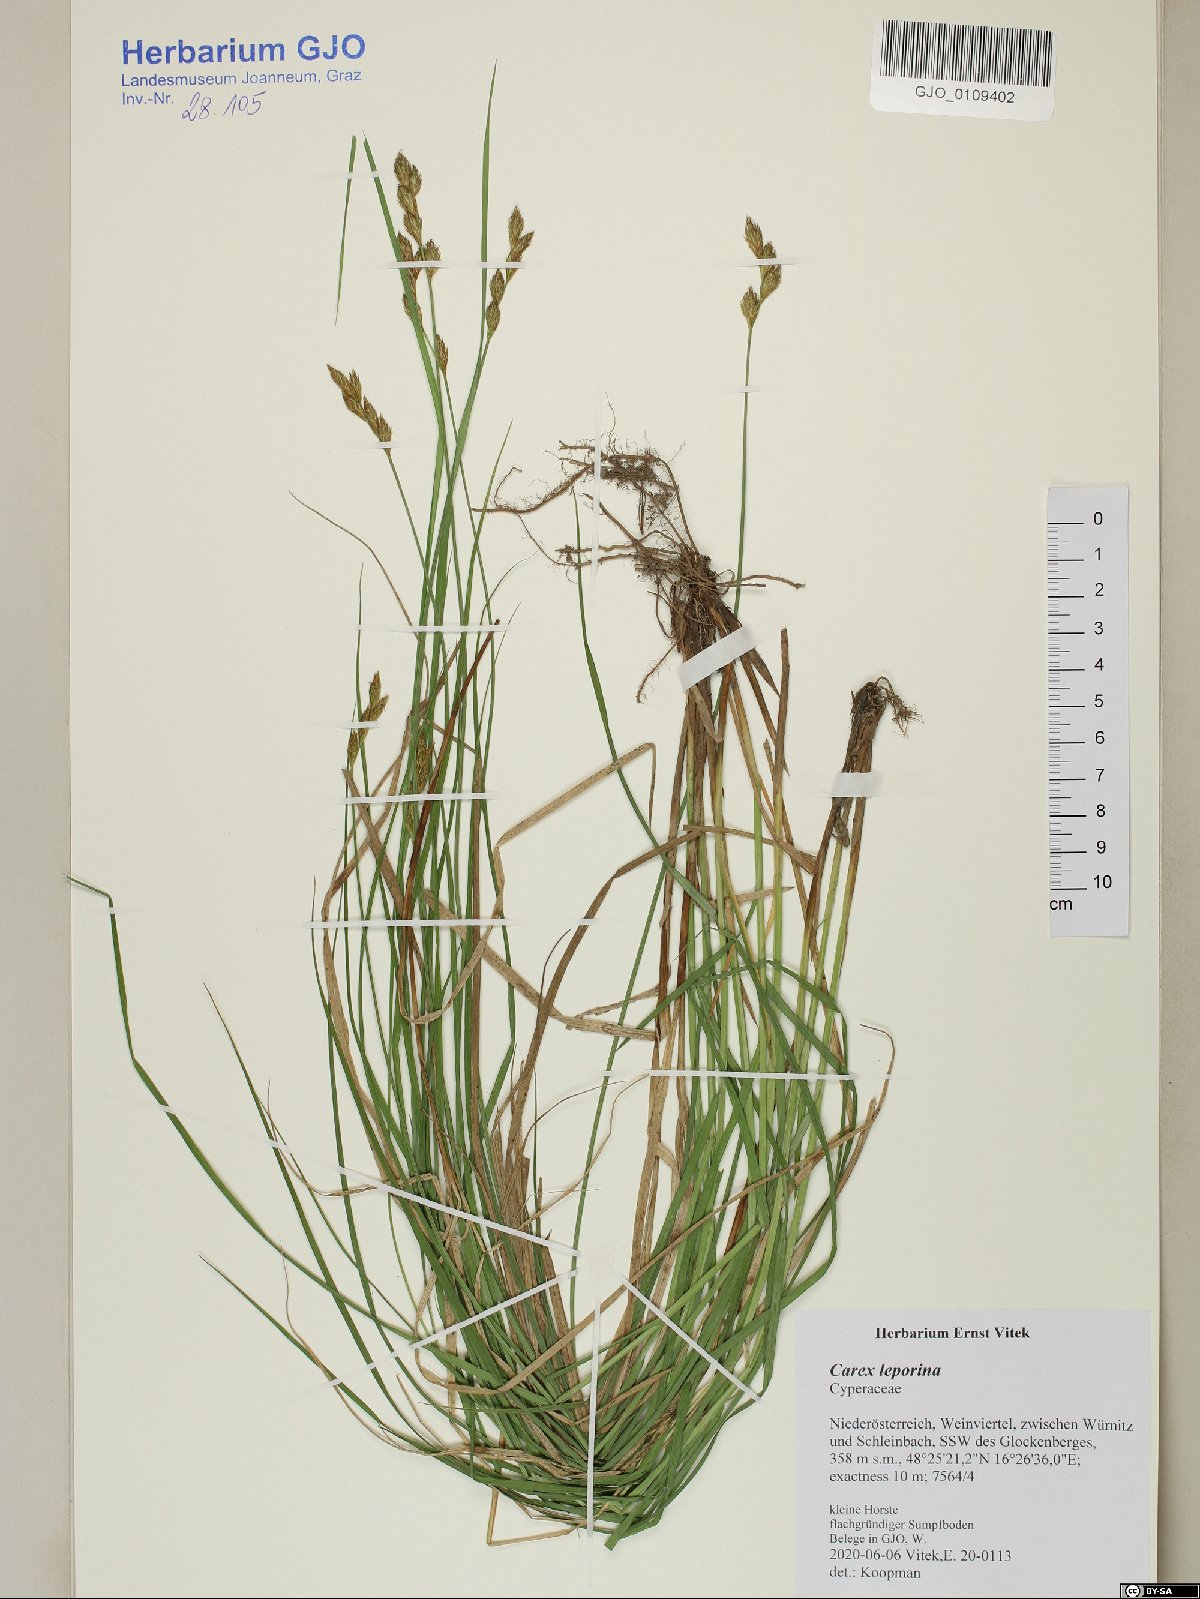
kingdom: Plantae
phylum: Tracheophyta
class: Liliopsida
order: Poales
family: Cyperaceae
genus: Carex
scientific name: Carex leporina
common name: Oval sedge
